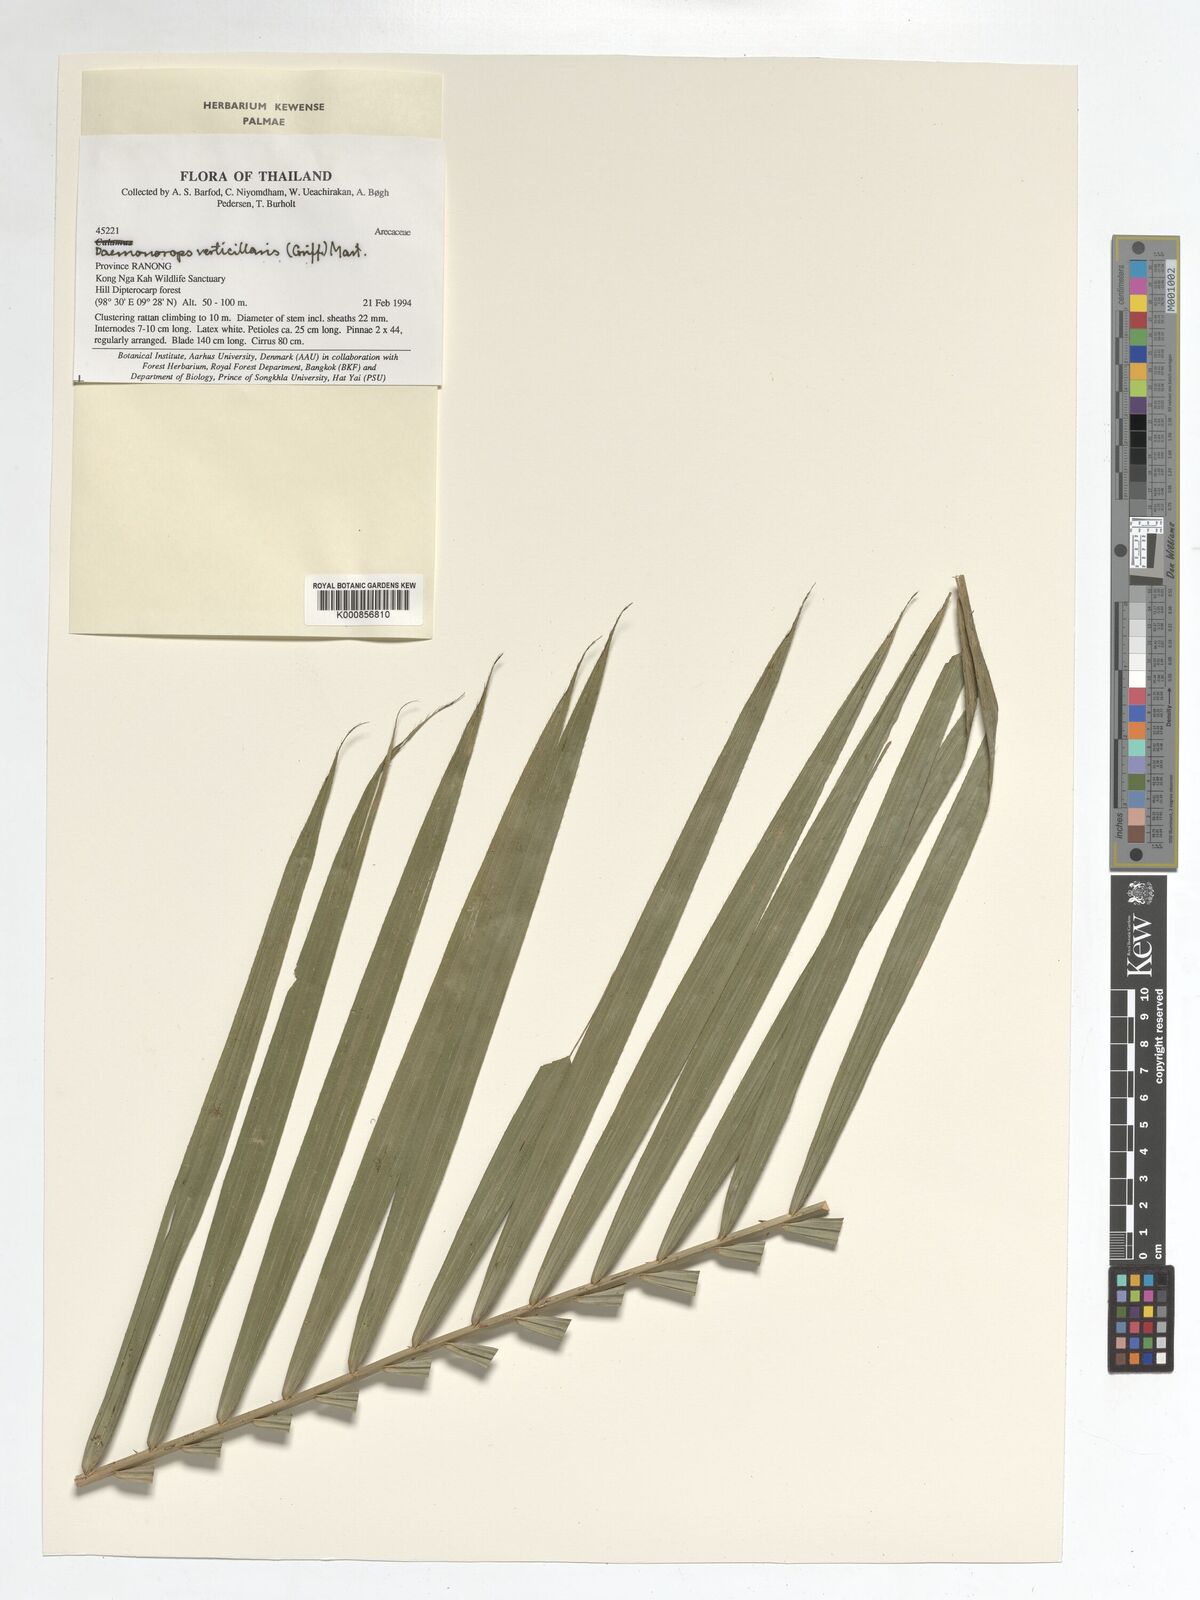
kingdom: Plantae
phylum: Tracheophyta
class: Liliopsida
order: Arecales
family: Arecaceae
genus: Calamus
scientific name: Calamus verticillaris
